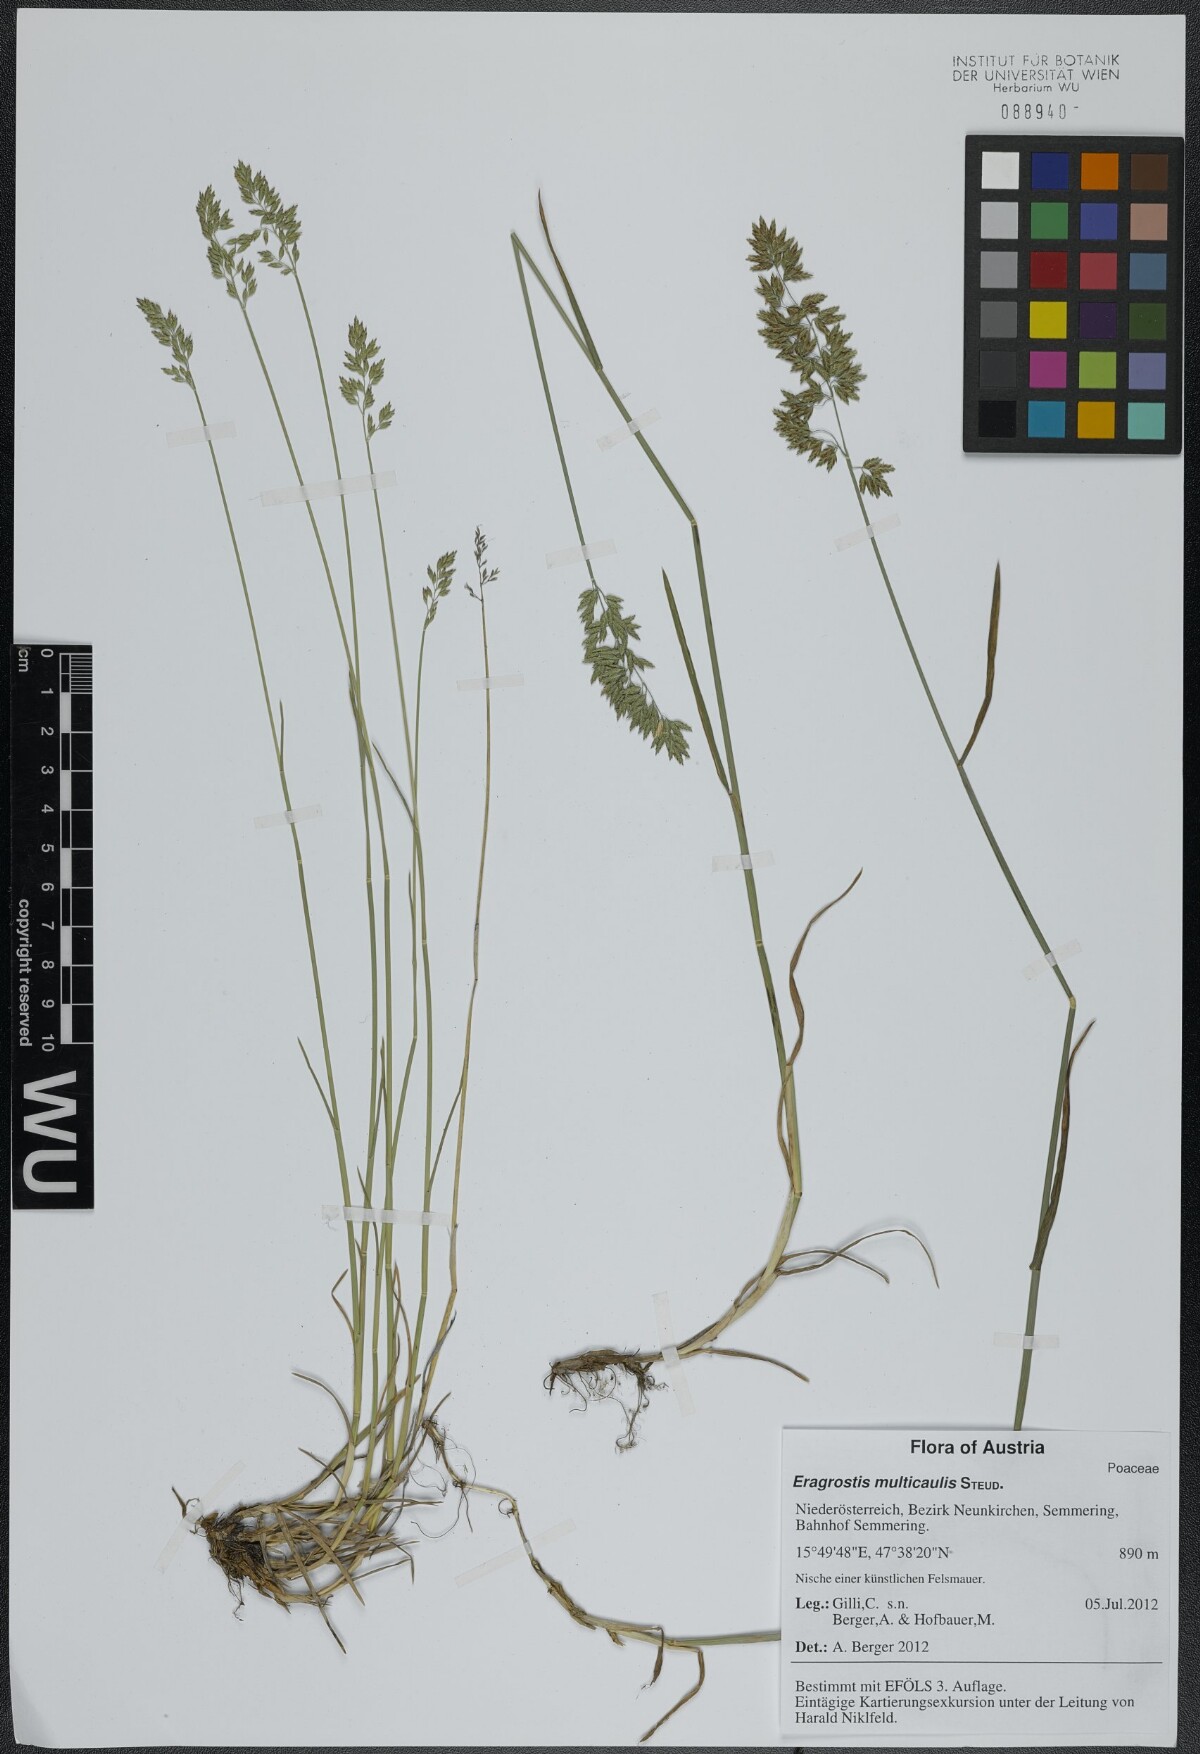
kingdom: Plantae
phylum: Tracheophyta
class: Liliopsida
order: Poales
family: Poaceae
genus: Poa
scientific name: Poa compressa
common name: Canada bluegrass
